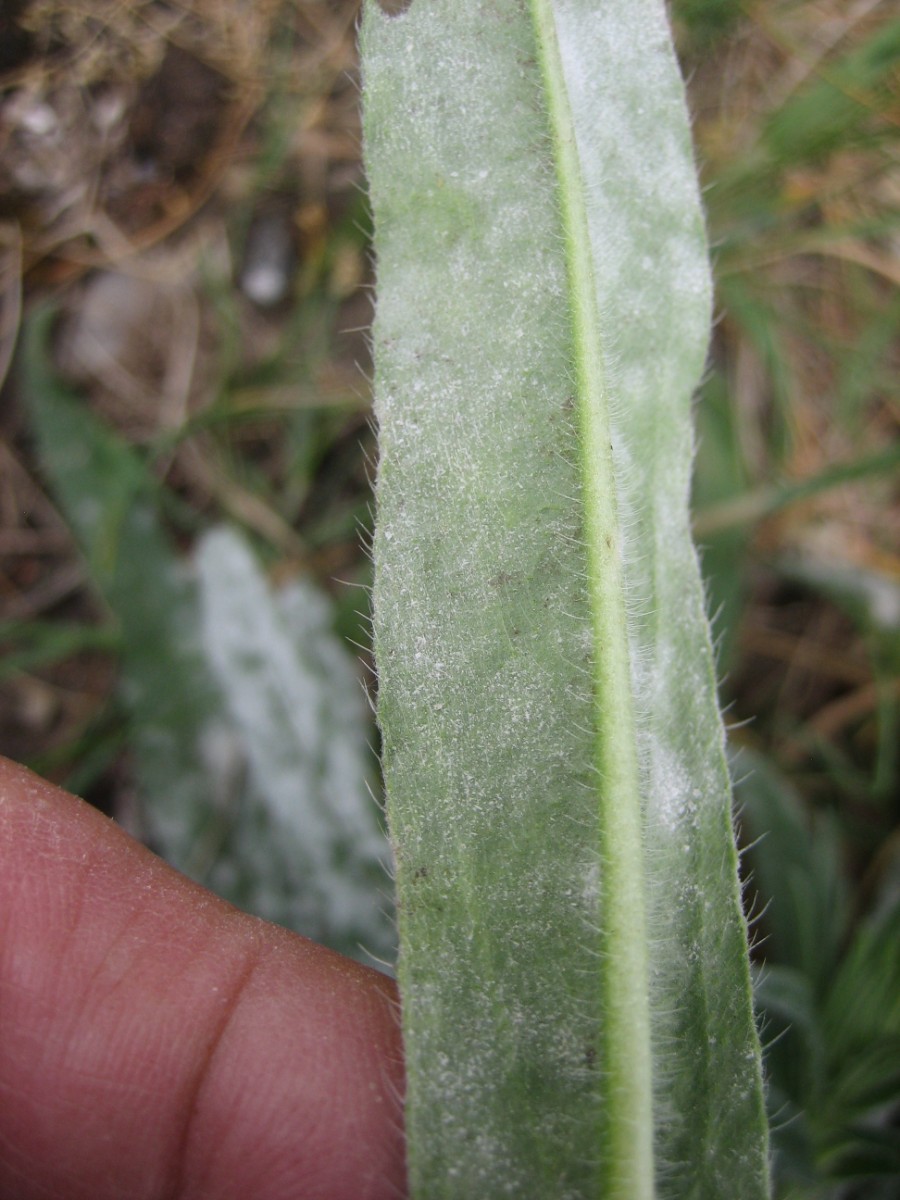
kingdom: Fungi
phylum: Ascomycota
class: Leotiomycetes
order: Helotiales
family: Erysiphaceae
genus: Golovinomyces
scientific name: Golovinomyces cynoglossi
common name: rublad-meldug
